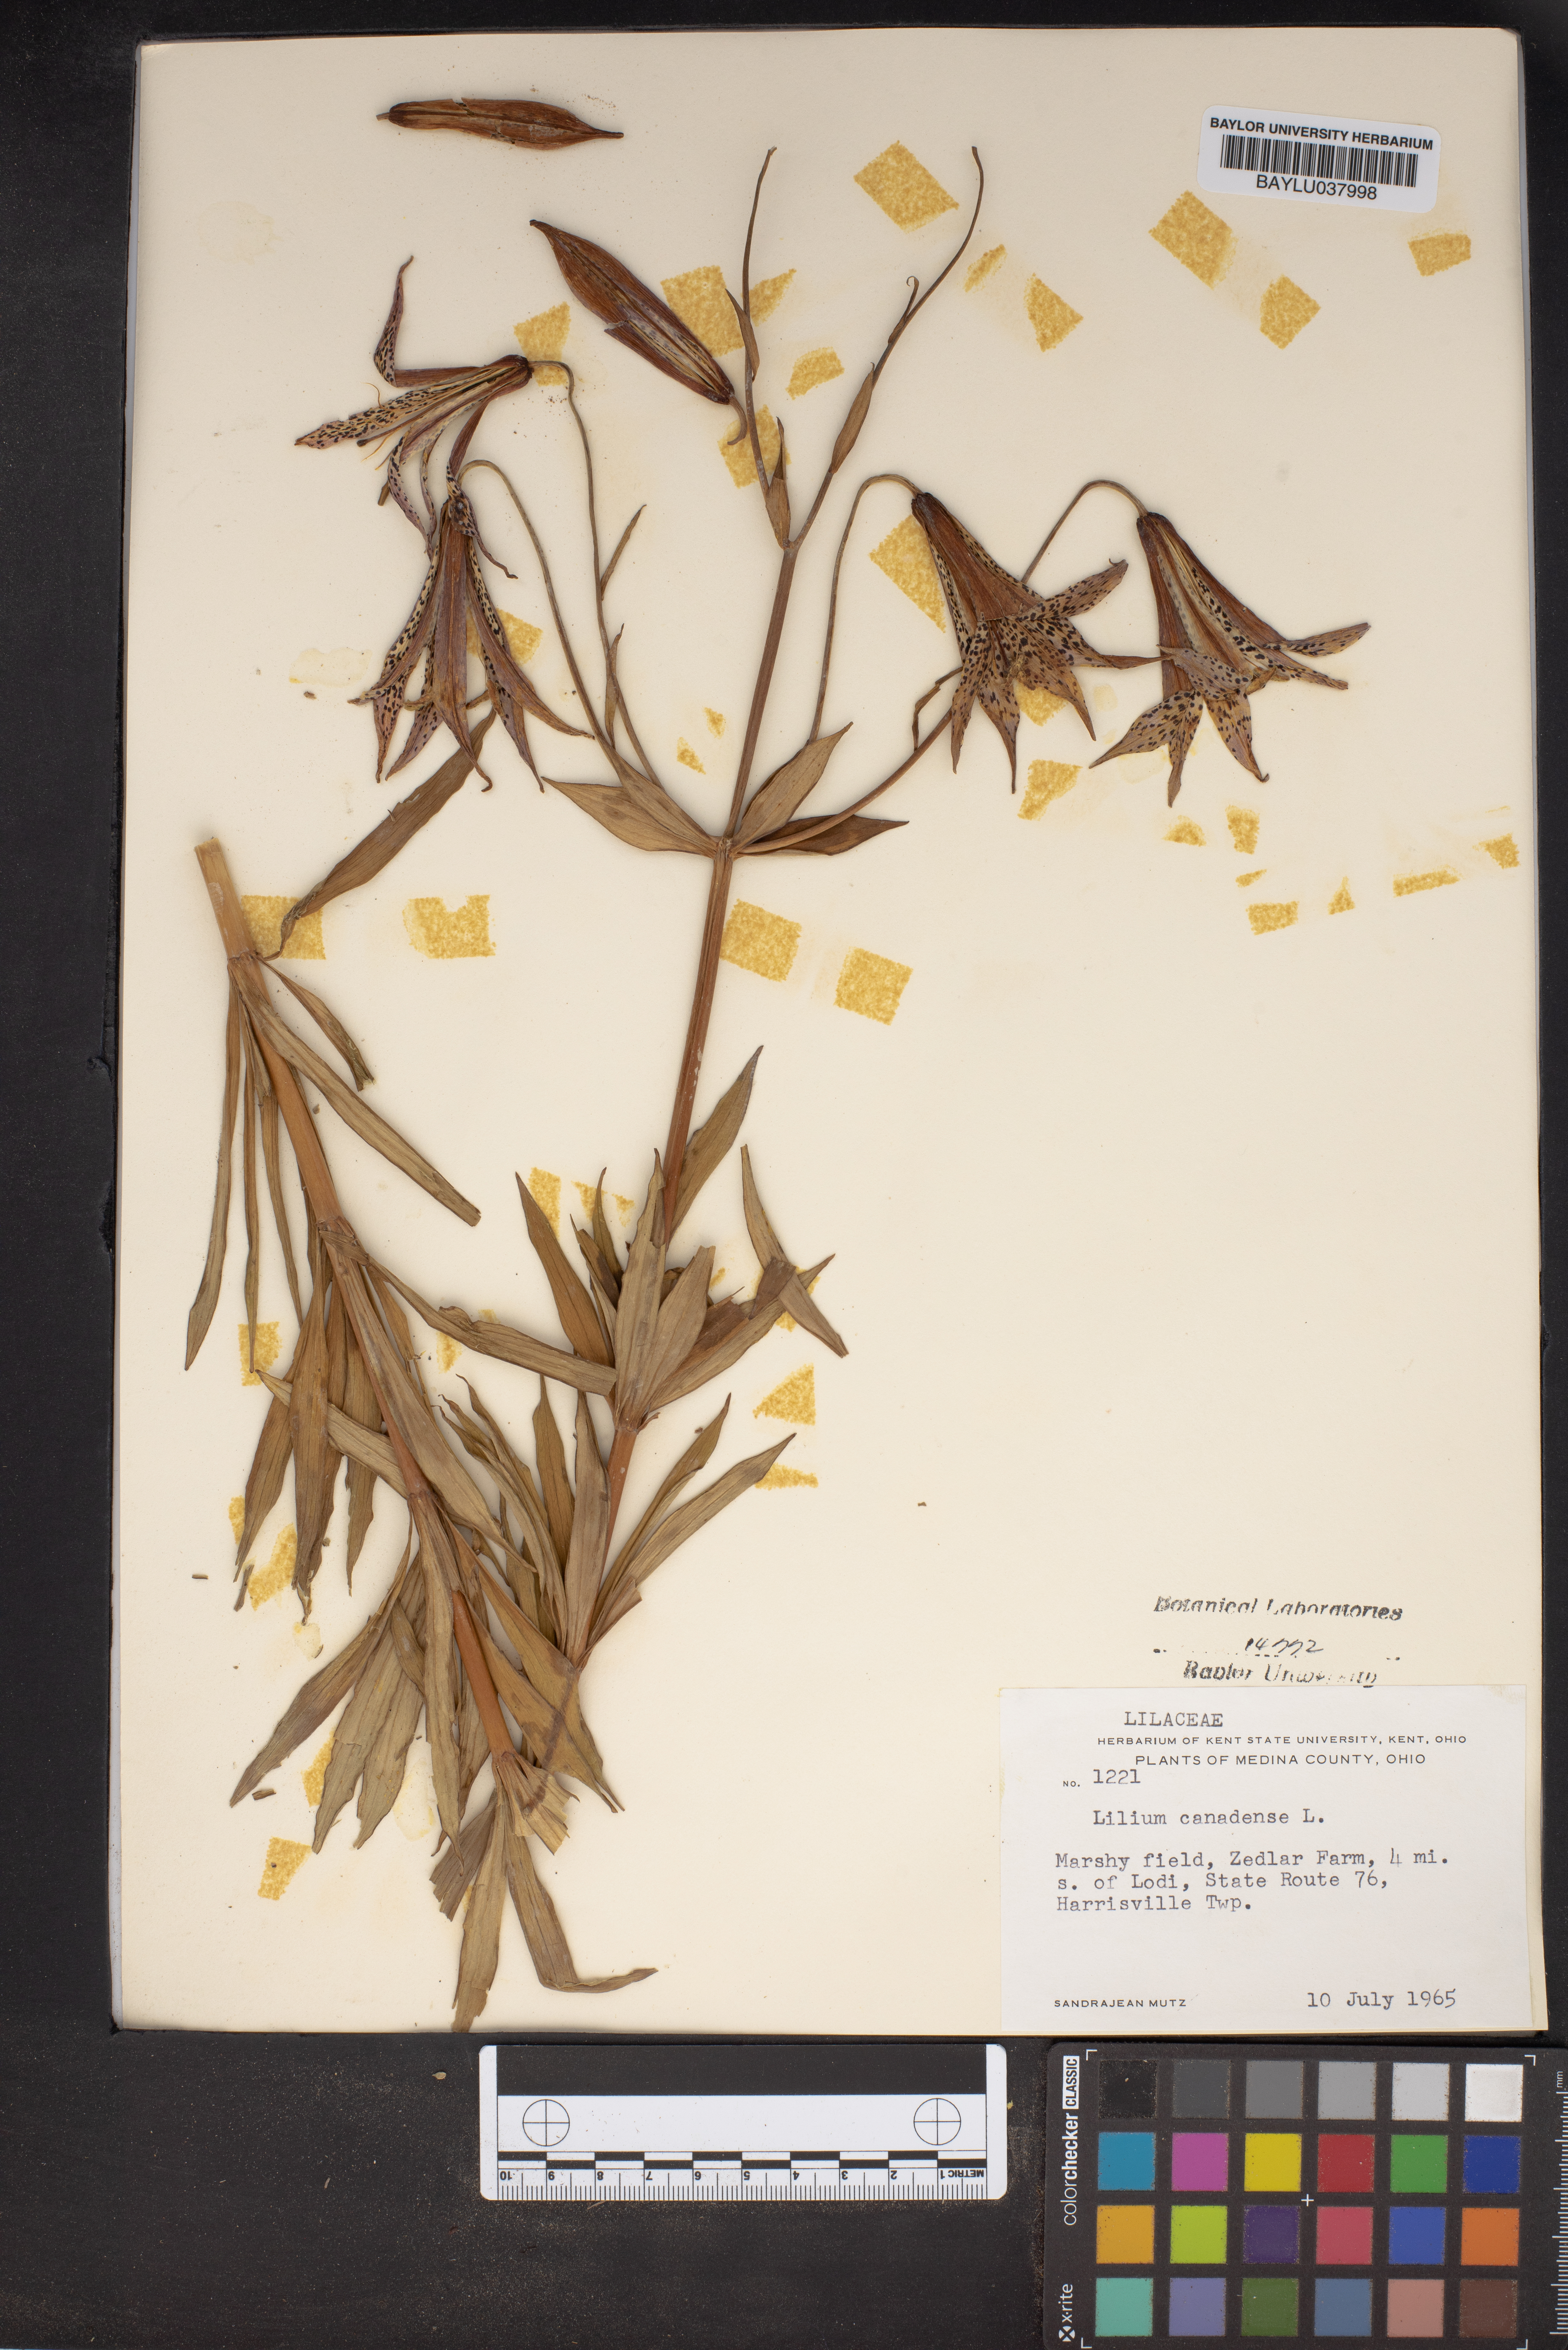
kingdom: Plantae
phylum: Tracheophyta
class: Liliopsida
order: Liliales
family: Liliaceae
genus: Lilium
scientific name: Lilium canadense
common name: Canada lily
